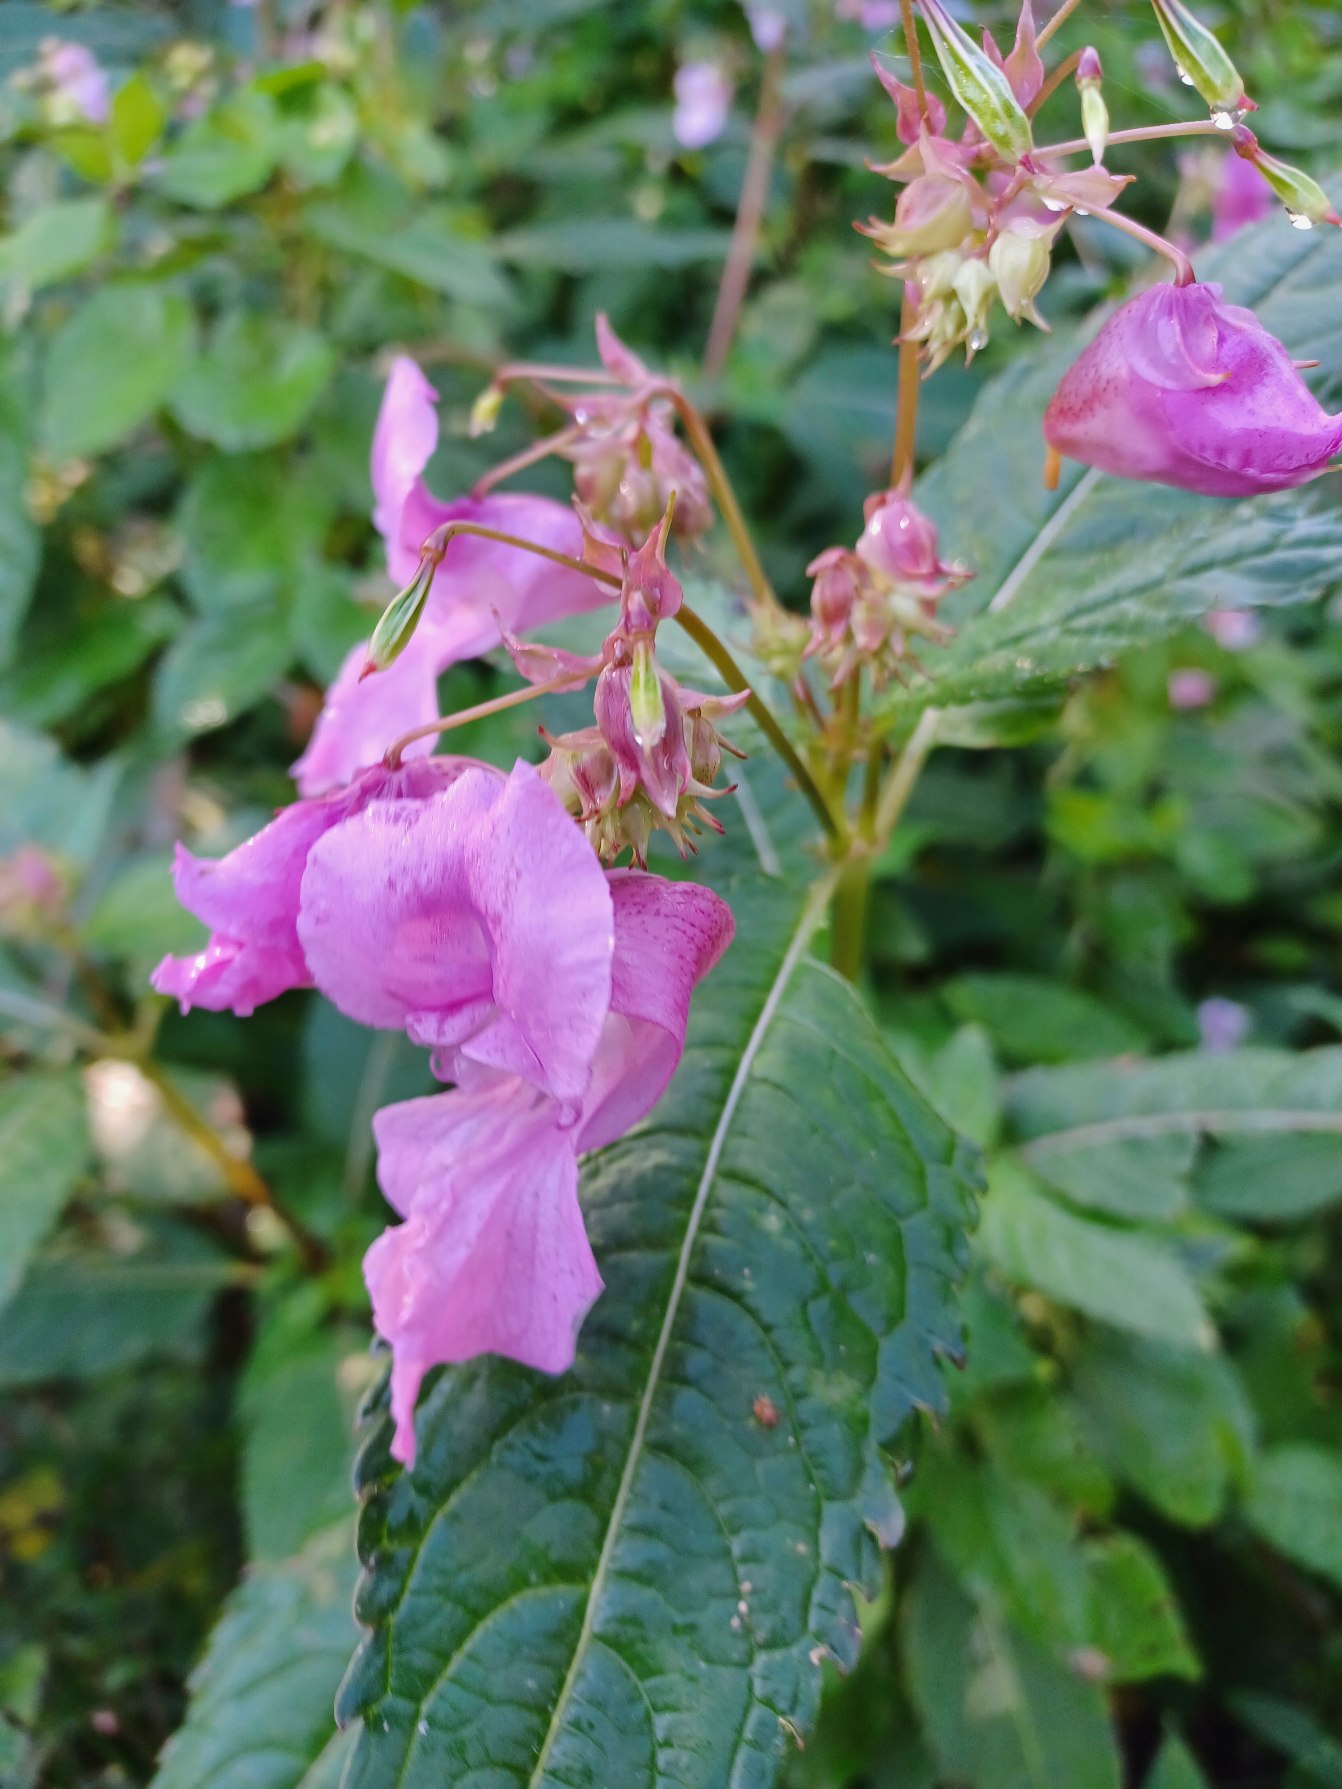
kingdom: Plantae
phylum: Tracheophyta
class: Magnoliopsida
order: Ericales
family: Balsaminaceae
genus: Impatiens
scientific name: Impatiens glandulifera
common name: Kæmpe-balsamin
